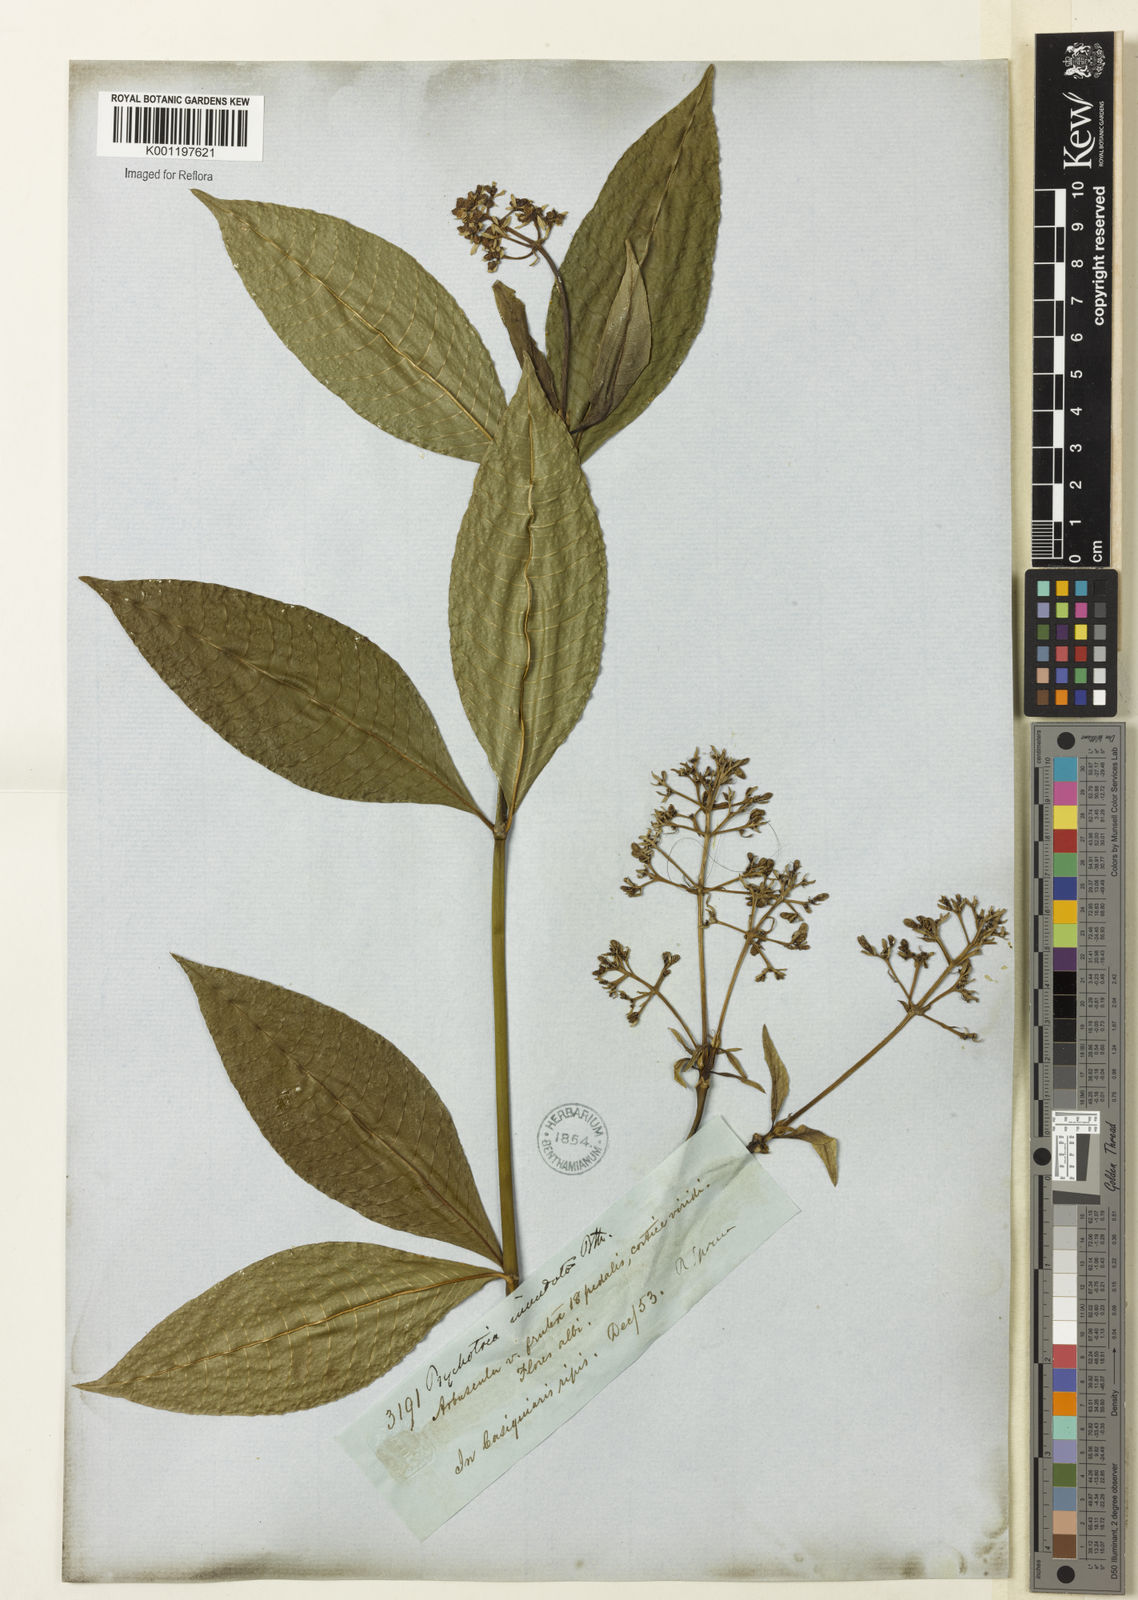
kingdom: Plantae
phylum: Tracheophyta
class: Magnoliopsida
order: Gentianales
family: Rubiaceae
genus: Palicourea
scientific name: Palicourea violacea
